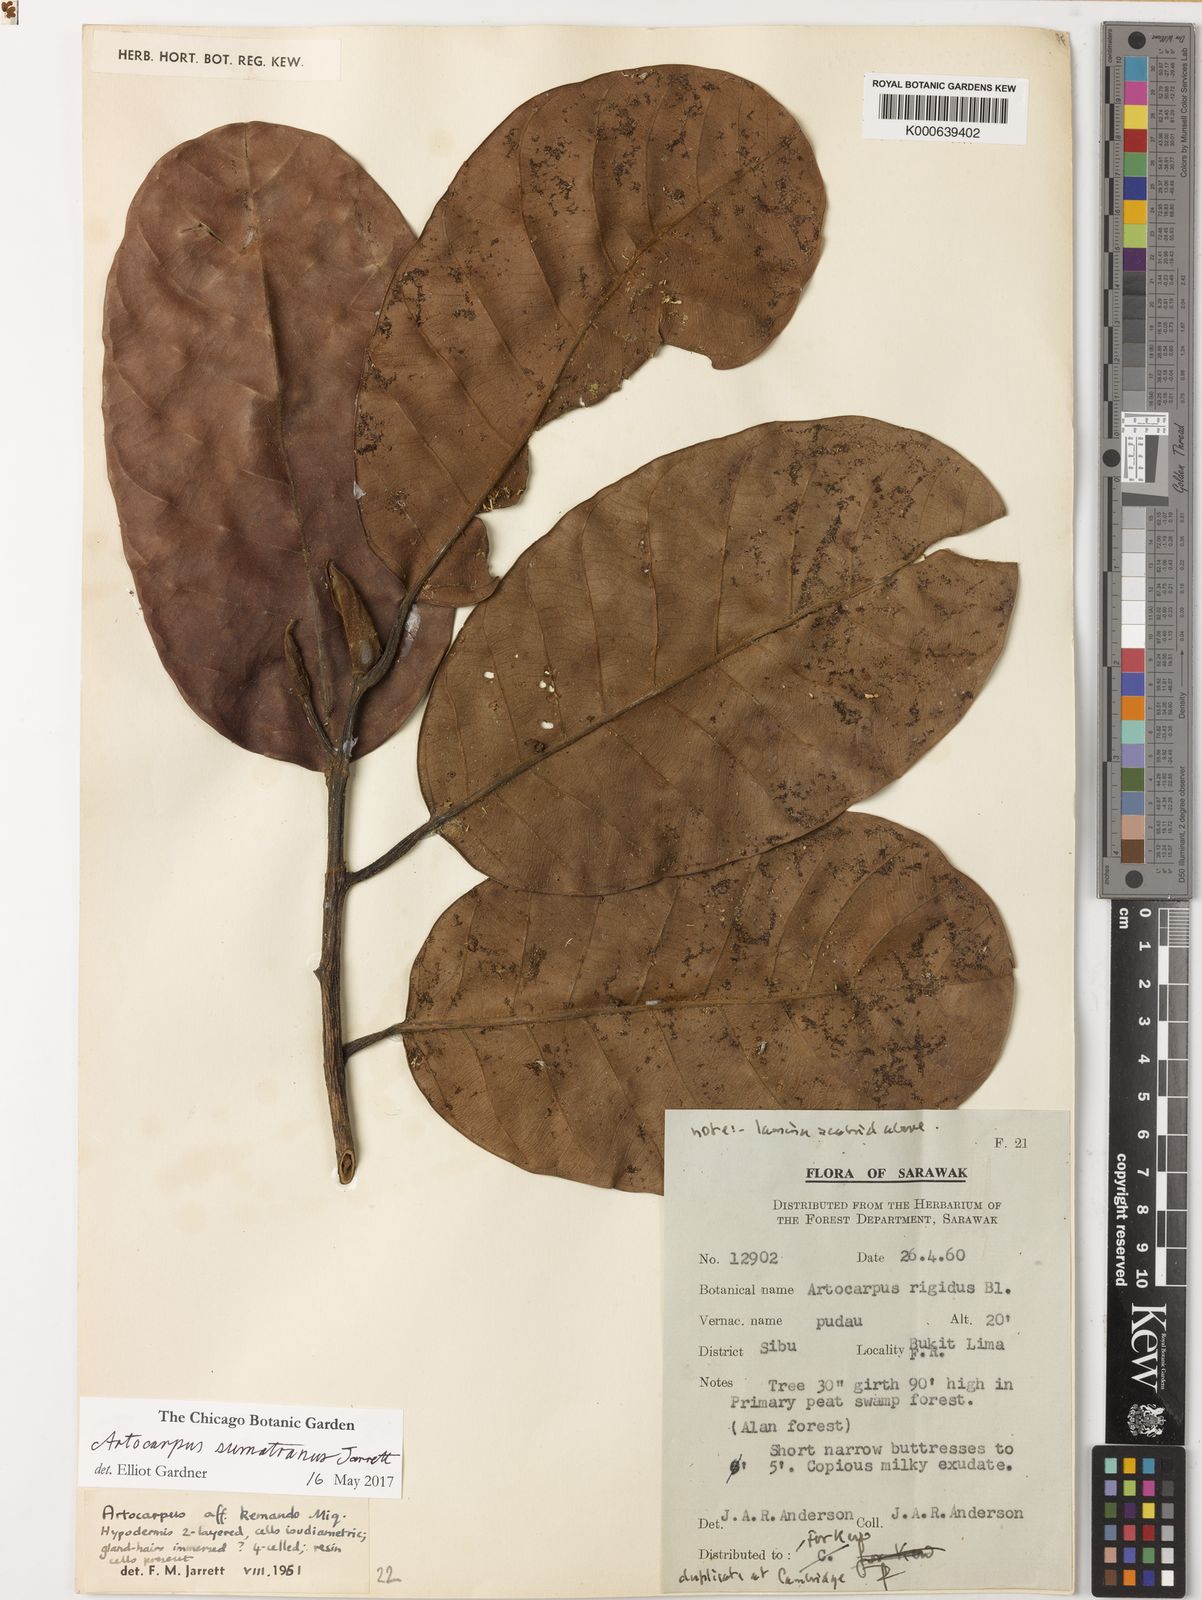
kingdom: Plantae
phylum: Tracheophyta
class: Magnoliopsida
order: Rosales
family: Moraceae
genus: Artocarpus
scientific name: Artocarpus kemando
